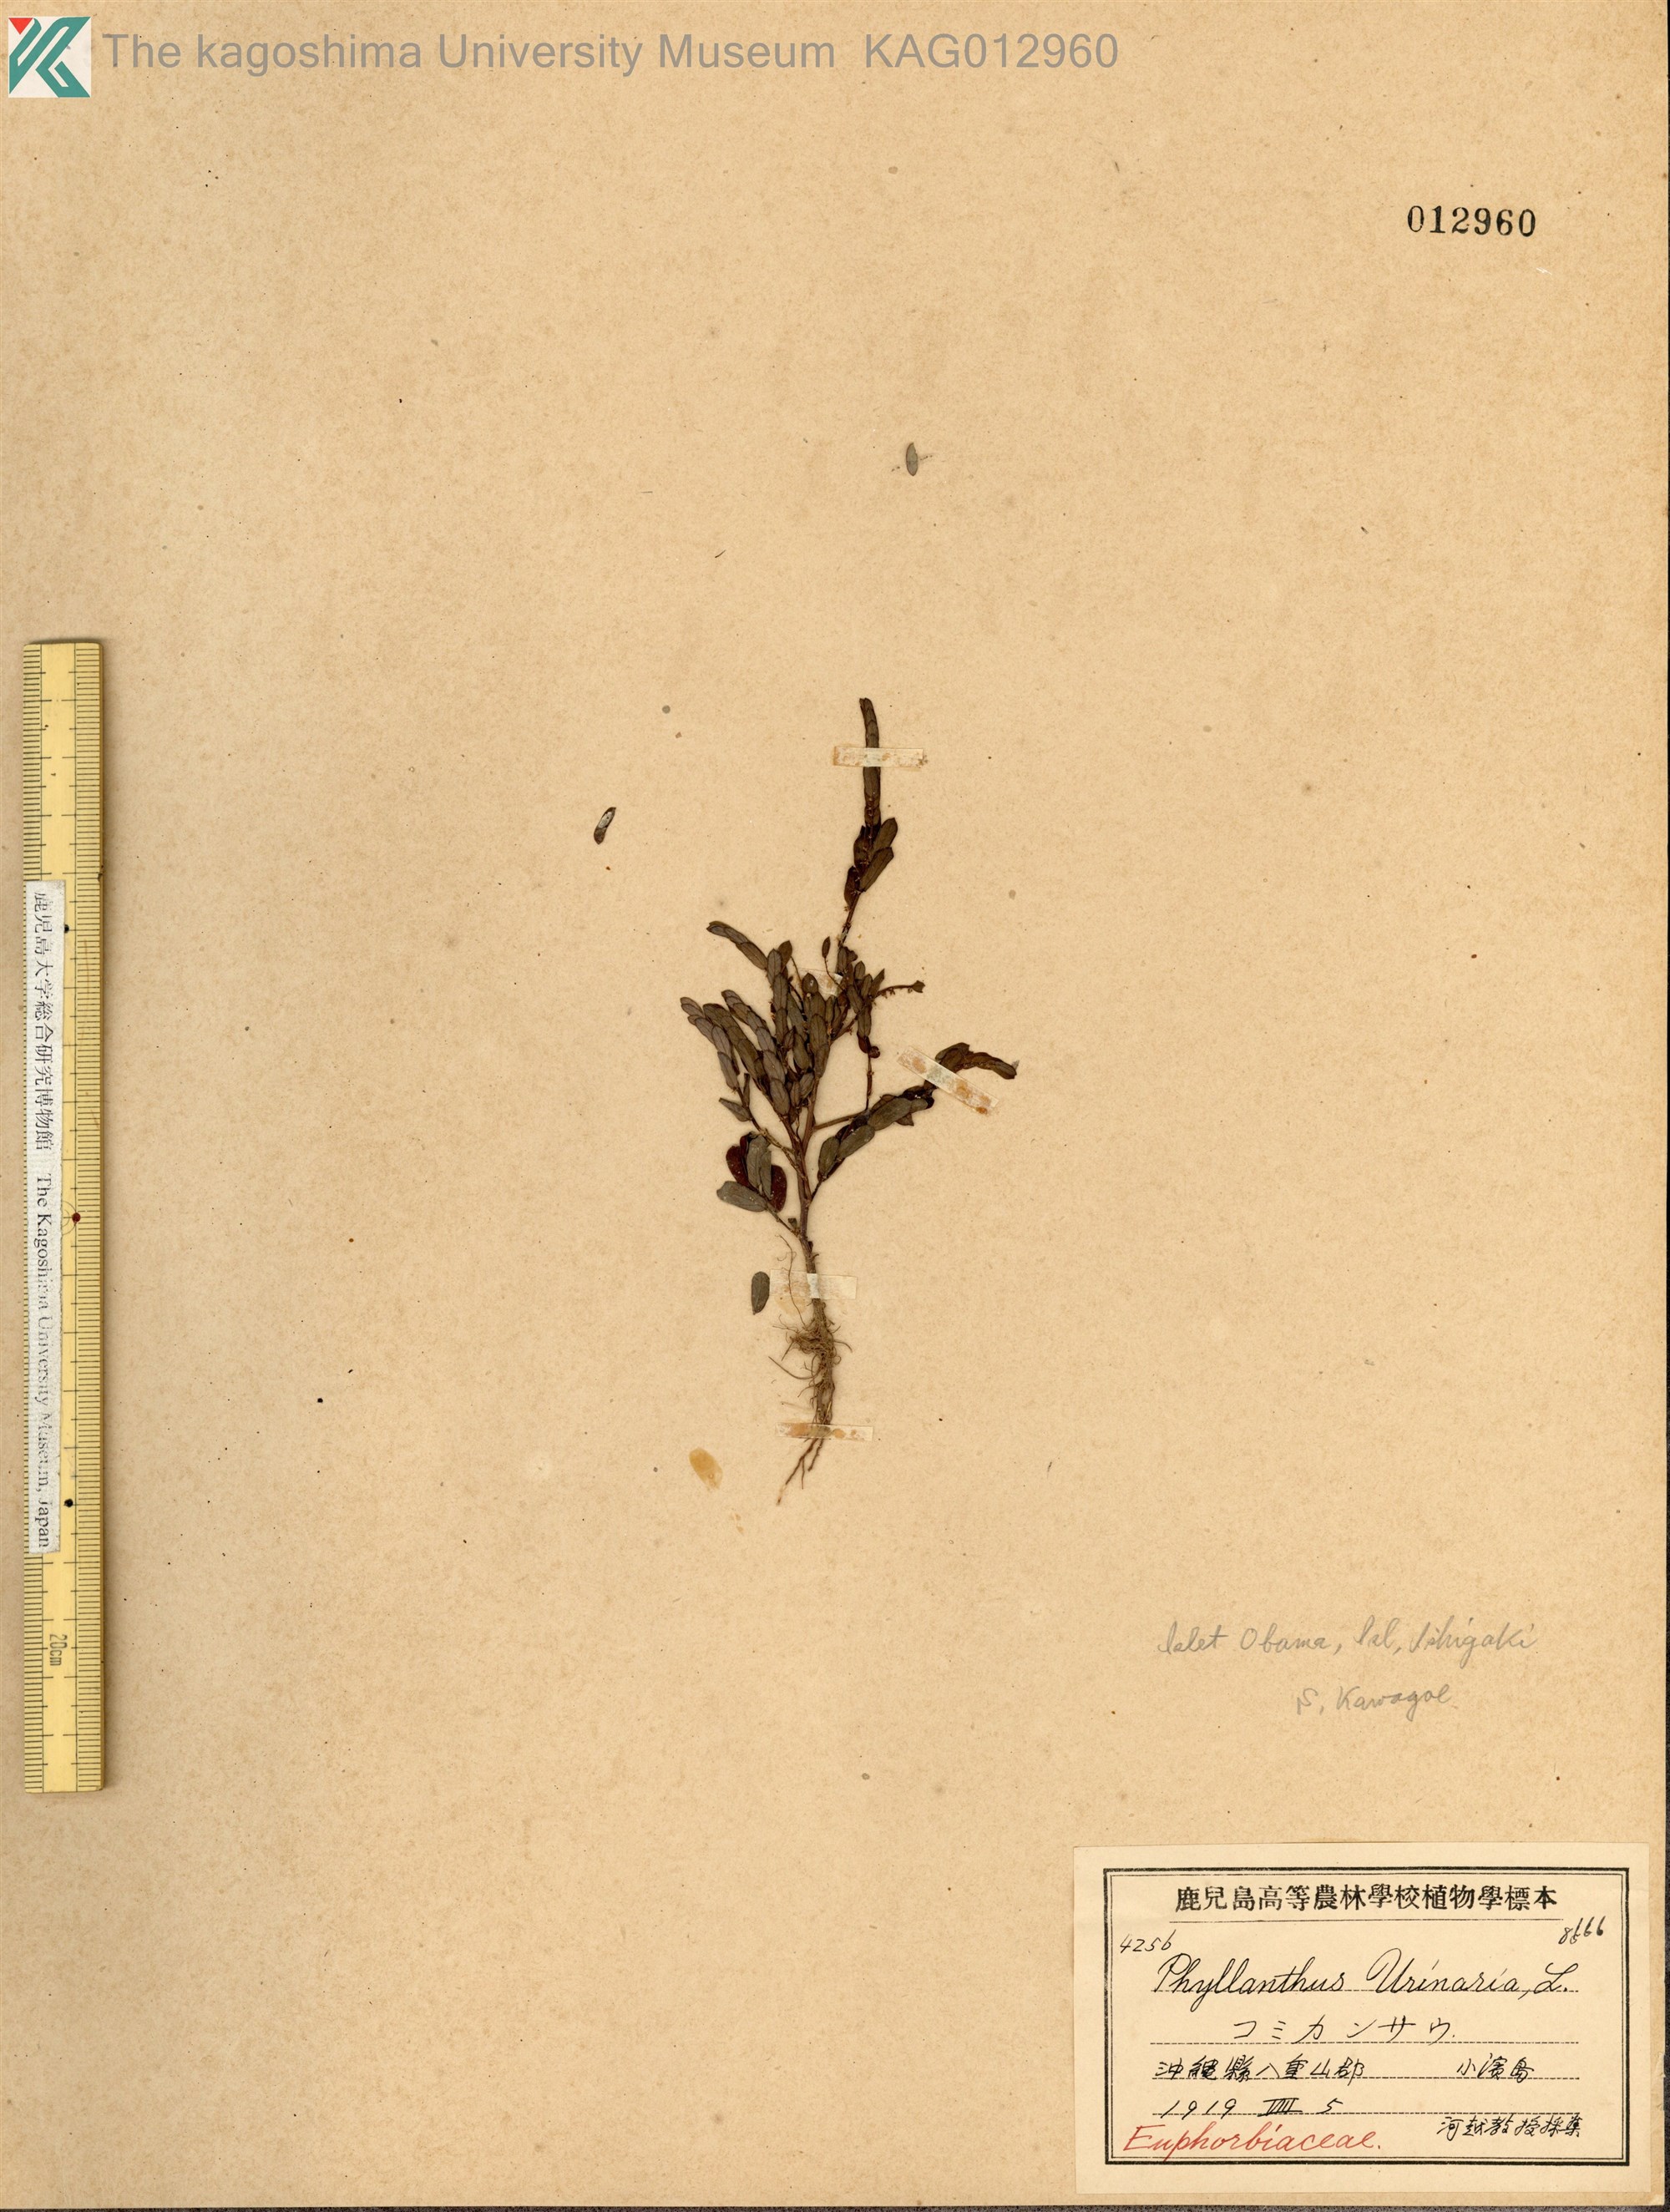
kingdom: Plantae
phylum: Tracheophyta
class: Magnoliopsida
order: Malpighiales
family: Phyllanthaceae
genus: Phyllanthus
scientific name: Phyllanthus urinaria
